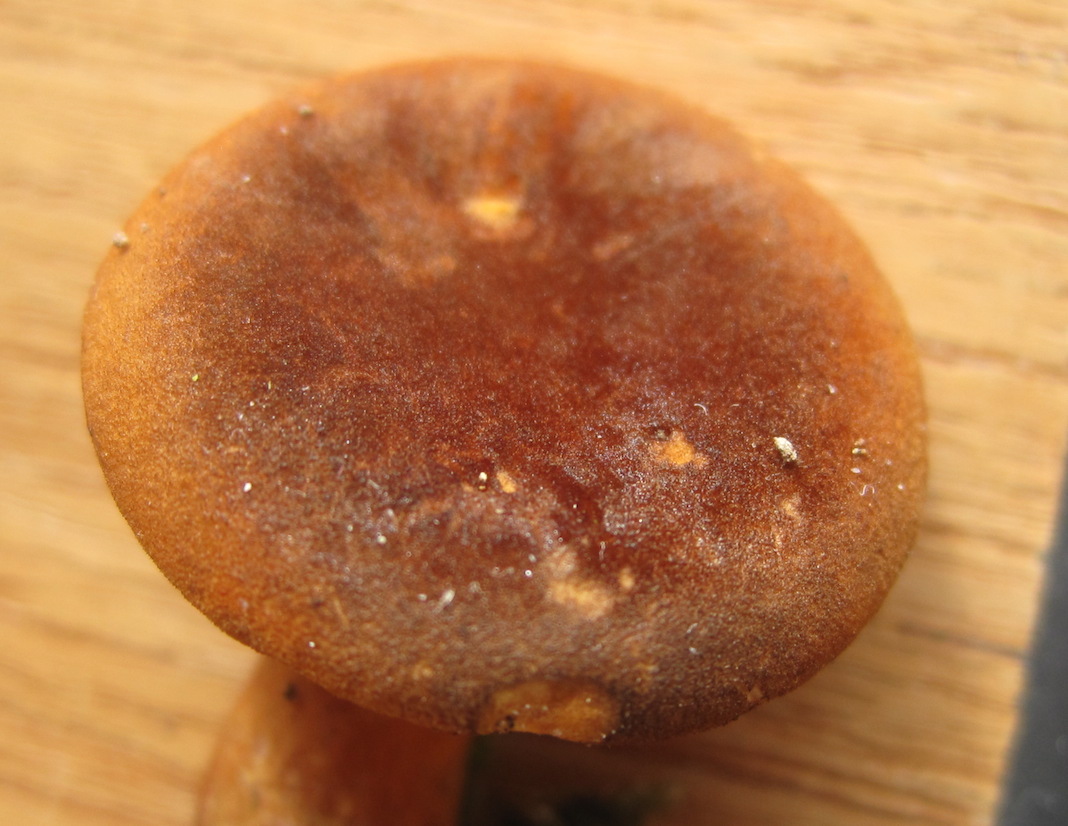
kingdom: Fungi
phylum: Basidiomycota
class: Agaricomycetes
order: Boletales
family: Hygrophoropsidaceae
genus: Hygrophoropsis
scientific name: Hygrophoropsis rufa
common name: brunfiltet orangekantarel
